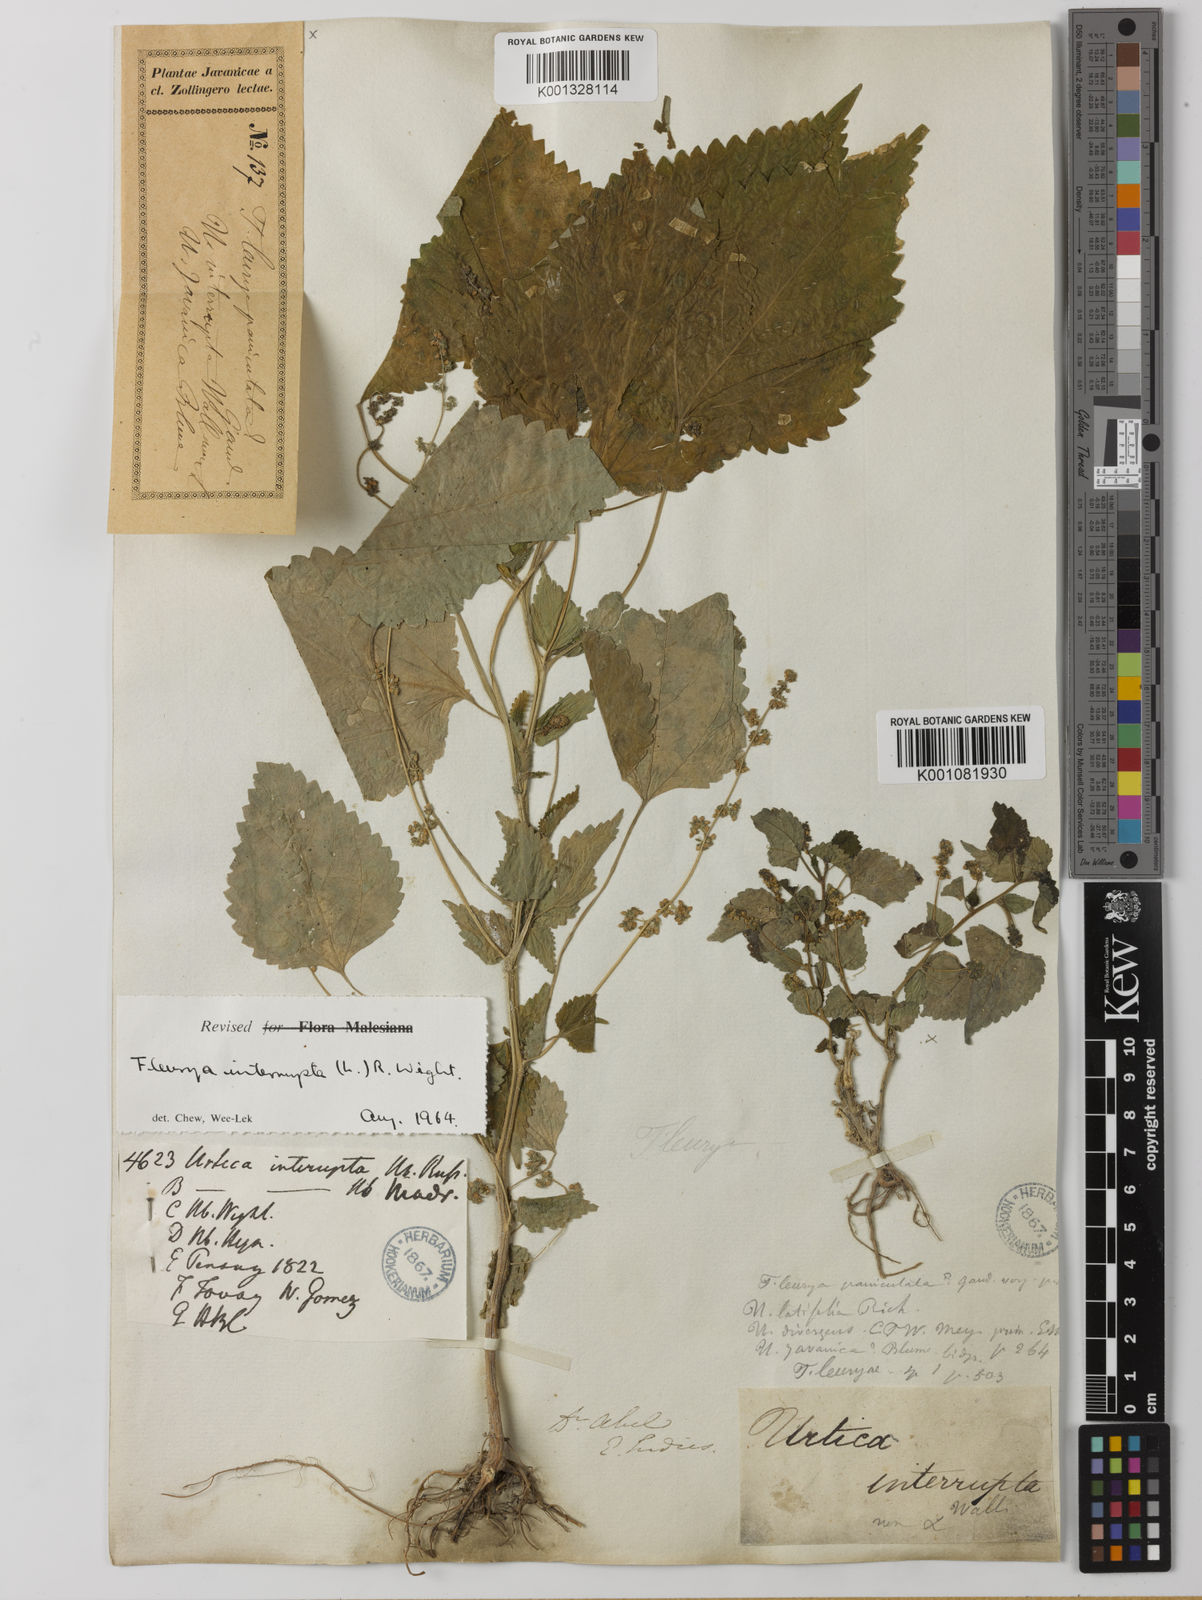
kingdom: Plantae
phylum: Tracheophyta
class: Magnoliopsida
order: Rosales
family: Urticaceae
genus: Laportea
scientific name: Laportea interrupta
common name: Hawaiian wood-nettle
